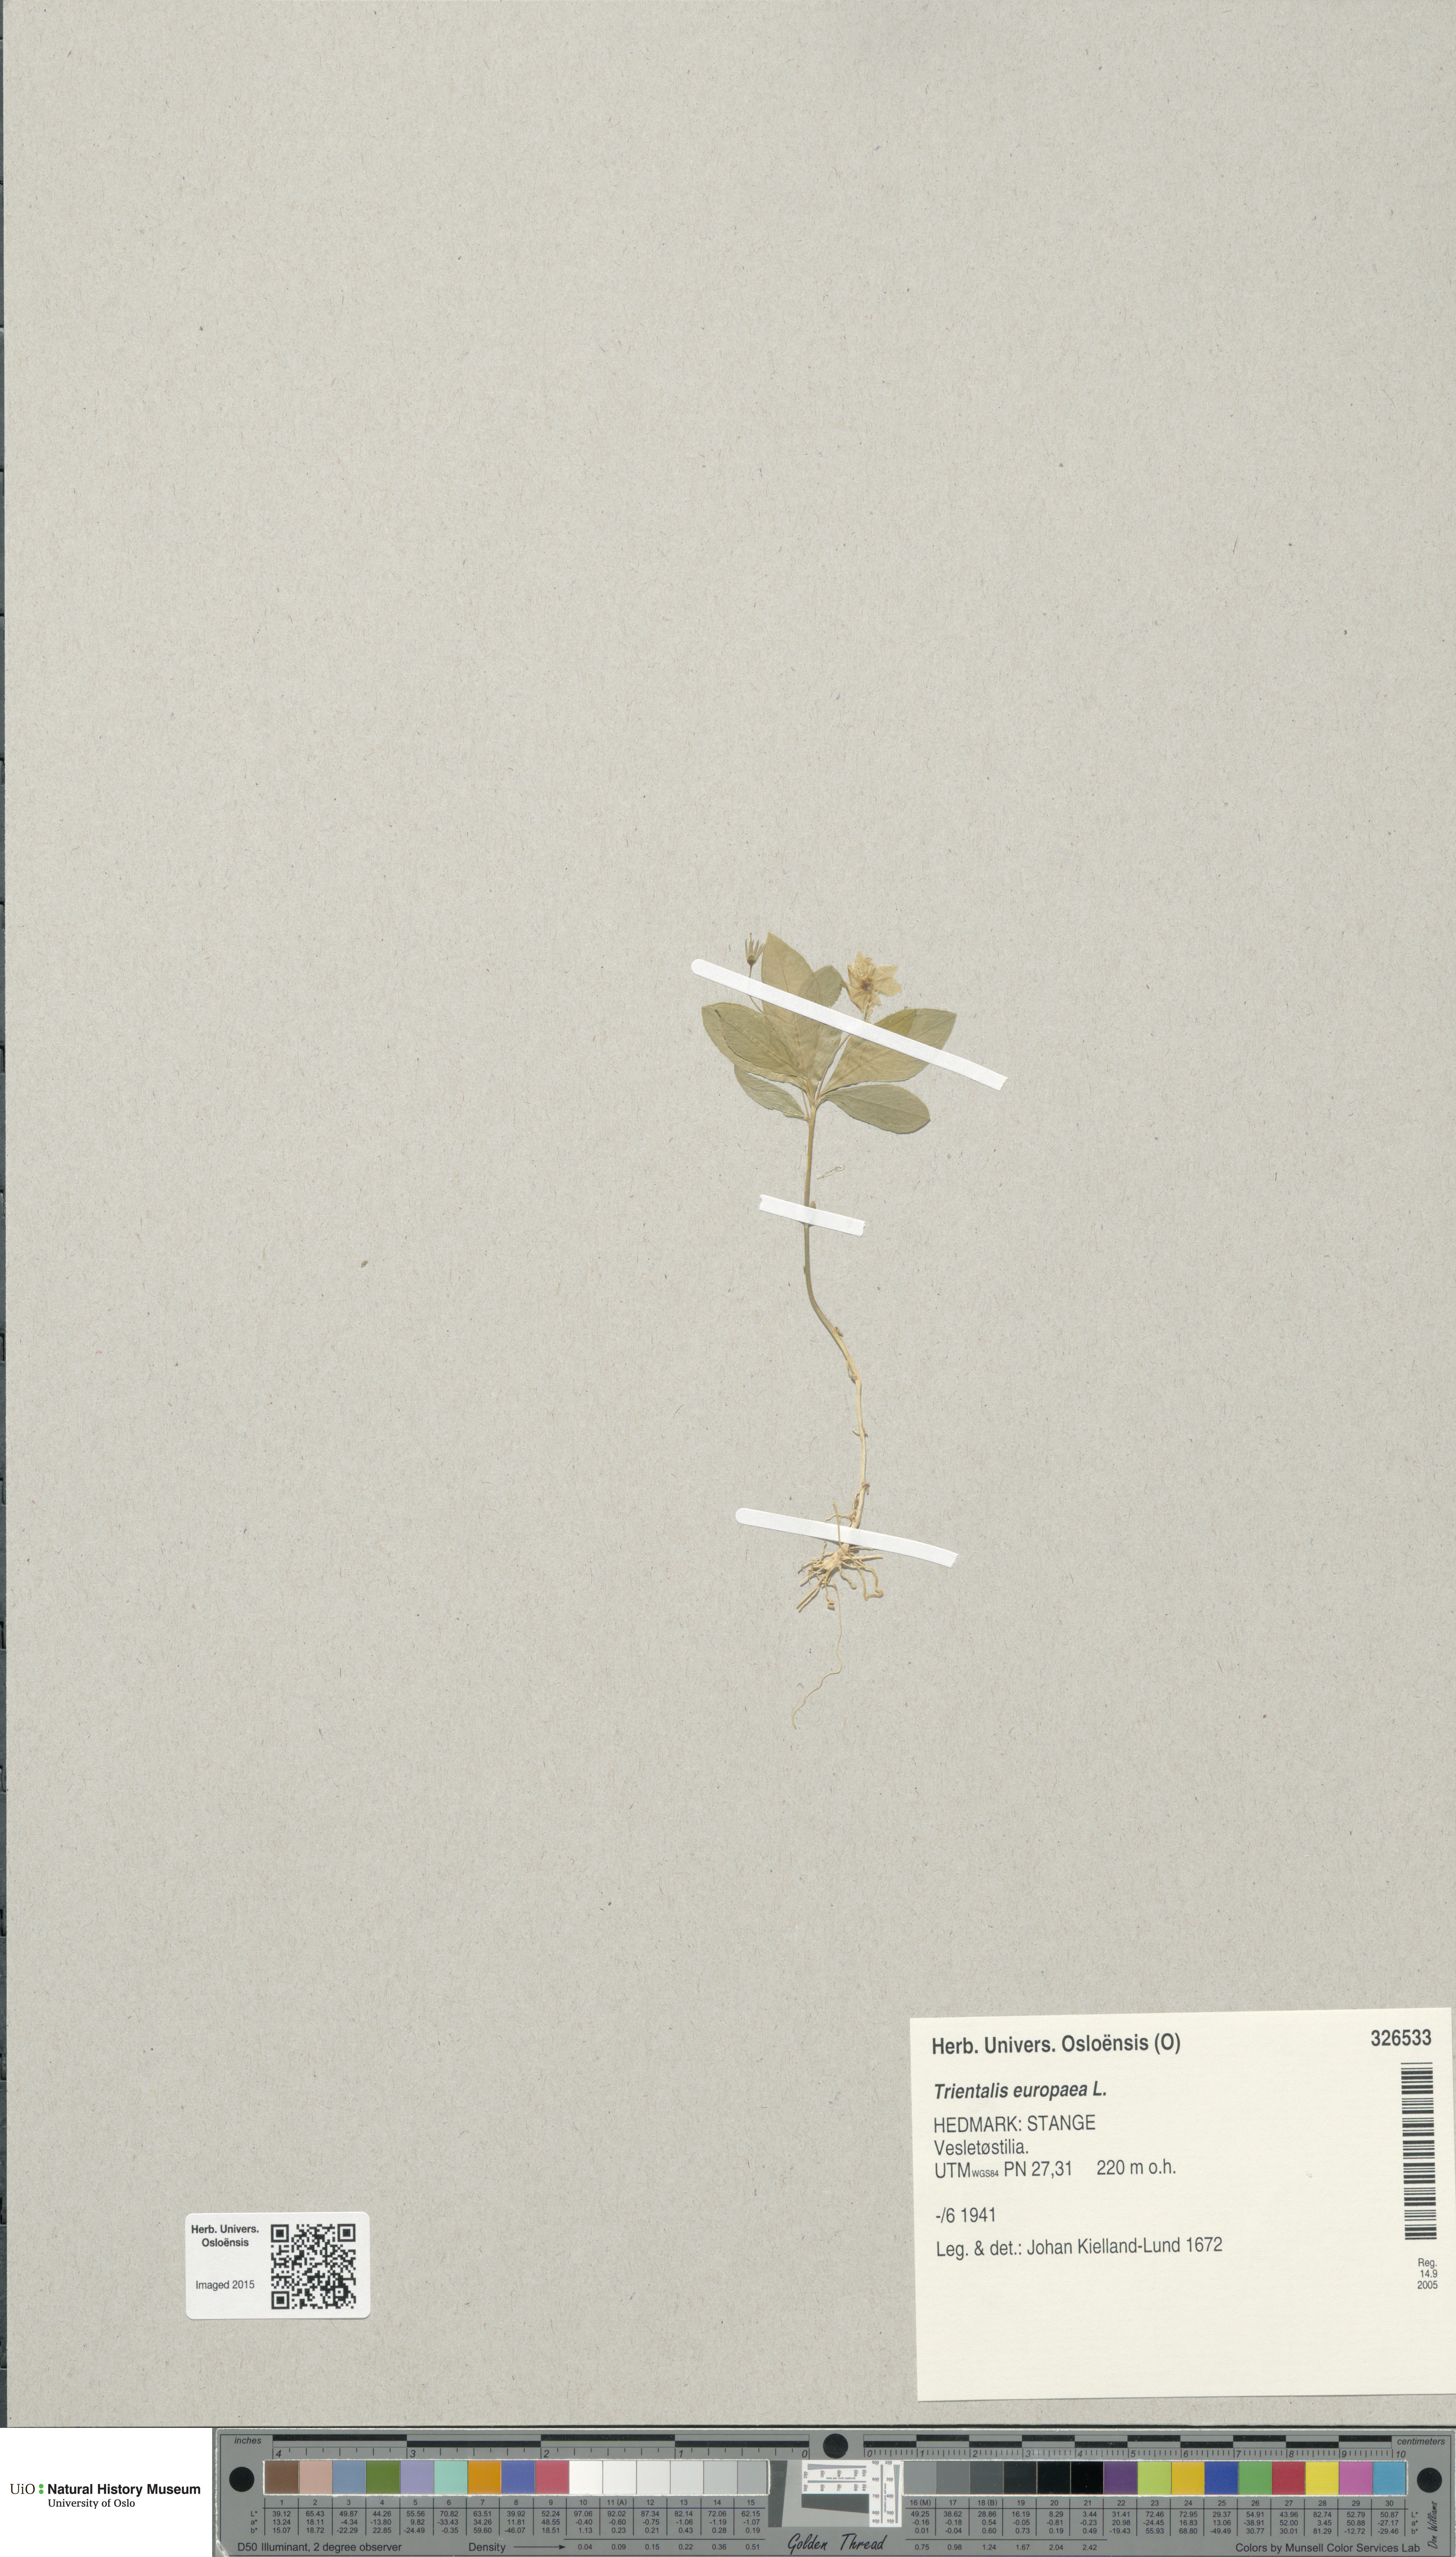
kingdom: Plantae
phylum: Tracheophyta
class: Magnoliopsida
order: Ericales
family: Primulaceae
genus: Lysimachia
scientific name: Lysimachia europaea
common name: Arctic starflower
